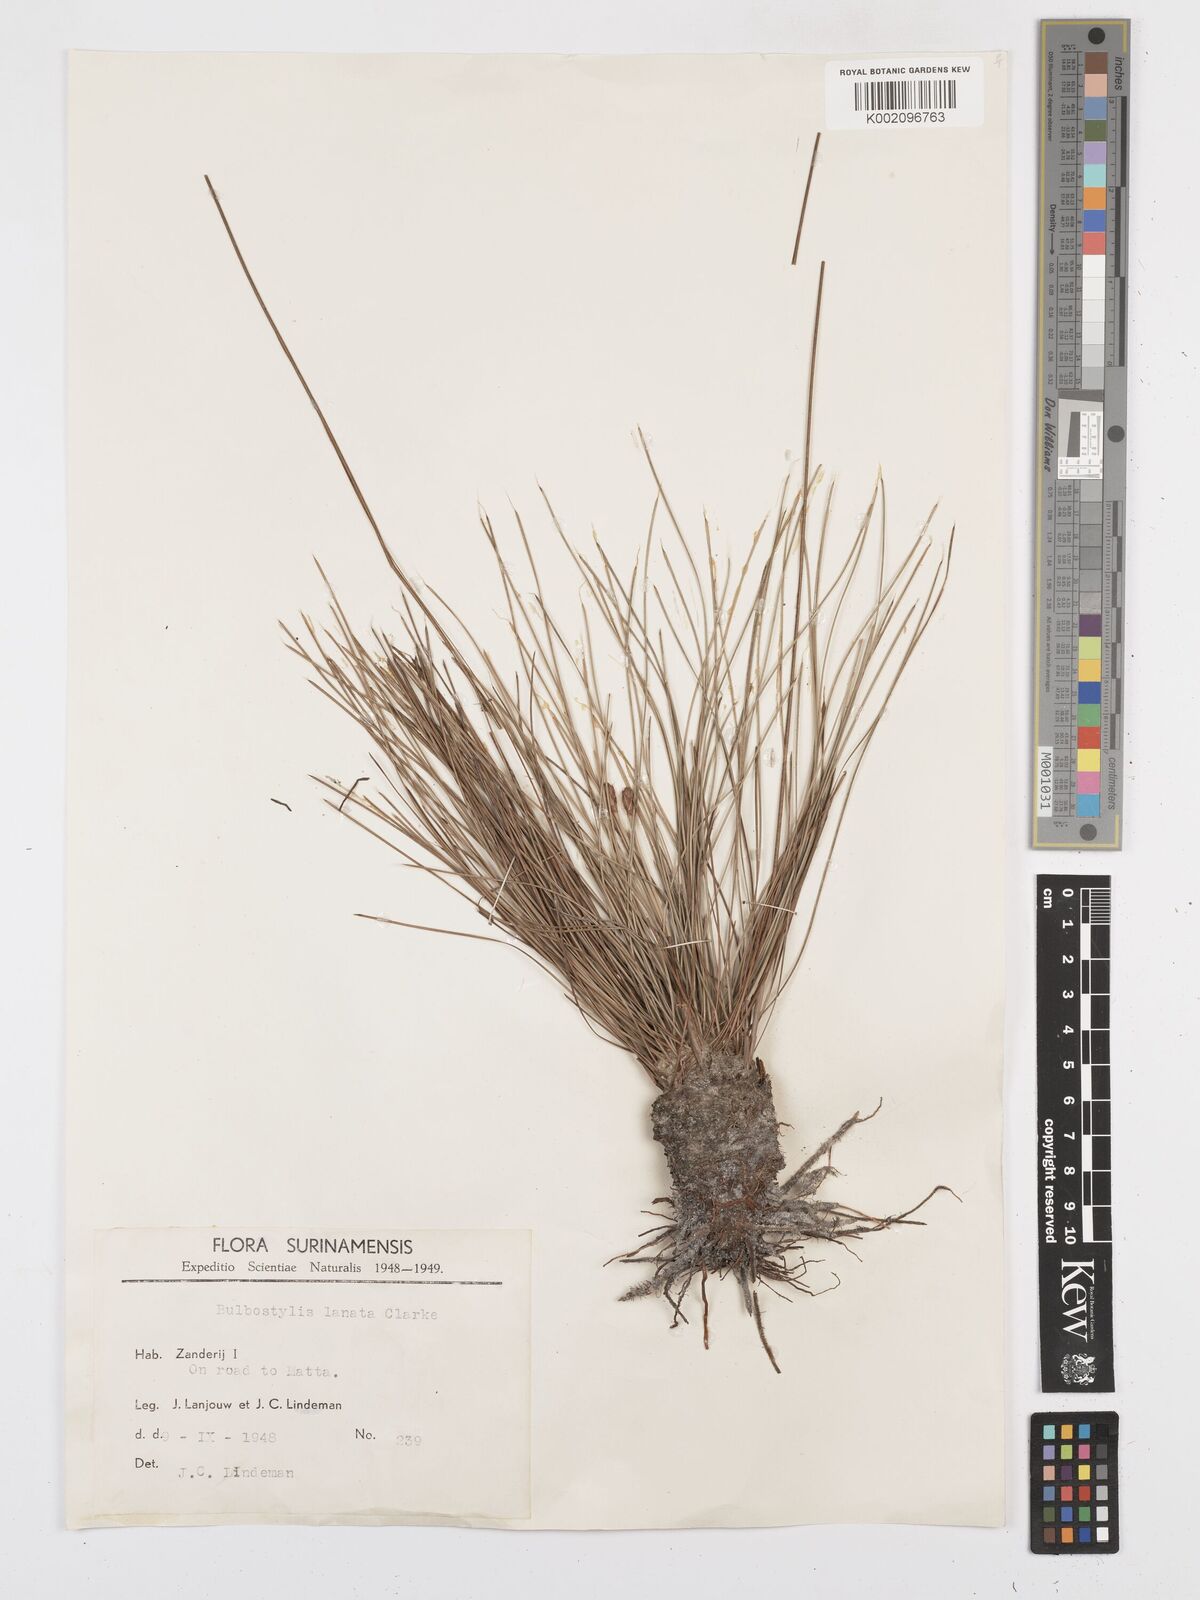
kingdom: Plantae
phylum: Tracheophyta
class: Liliopsida
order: Poales
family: Cyperaceae
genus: Bulbostylis
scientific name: Bulbostylis
